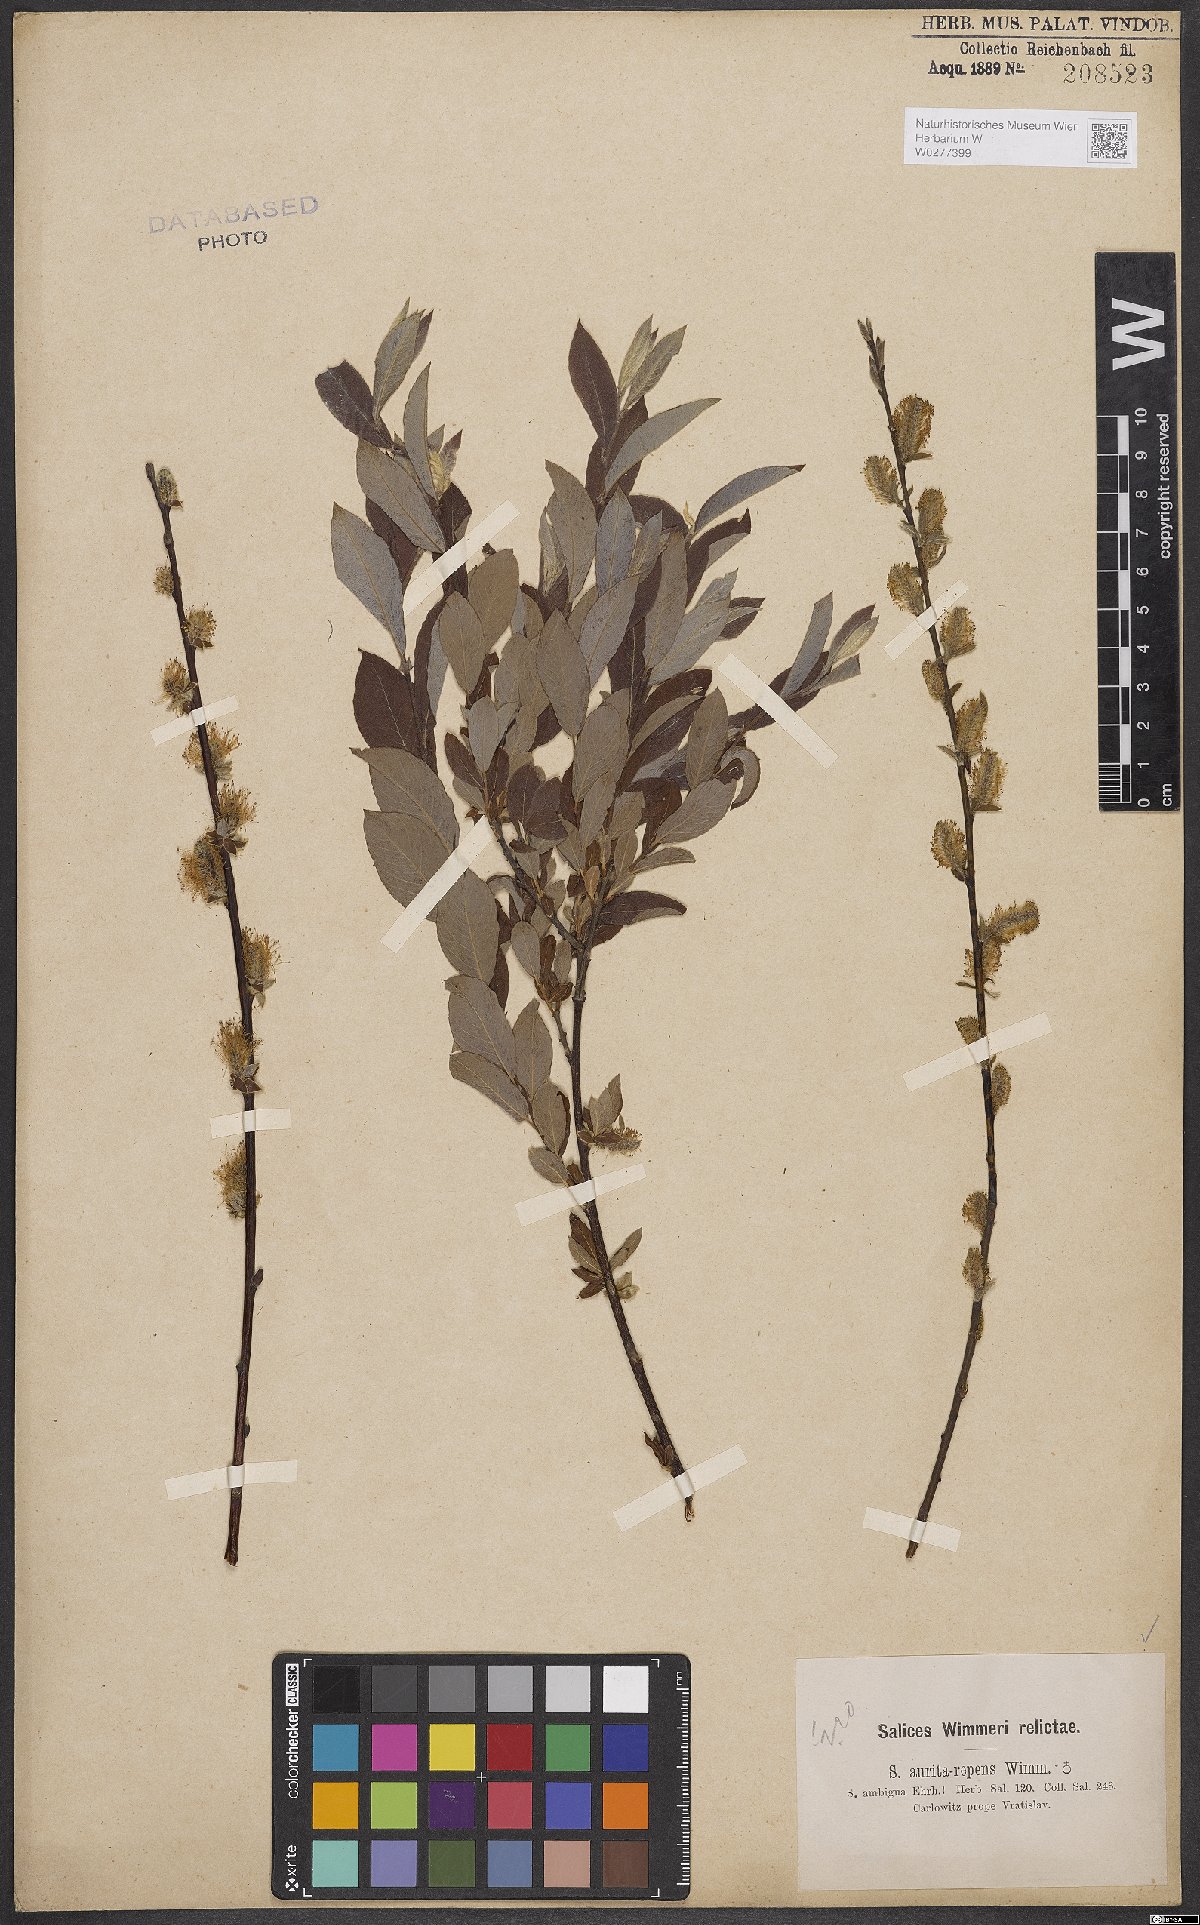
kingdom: Plantae
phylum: Tracheophyta
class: Magnoliopsida
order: Malpighiales
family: Salicaceae
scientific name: Salicaceae
